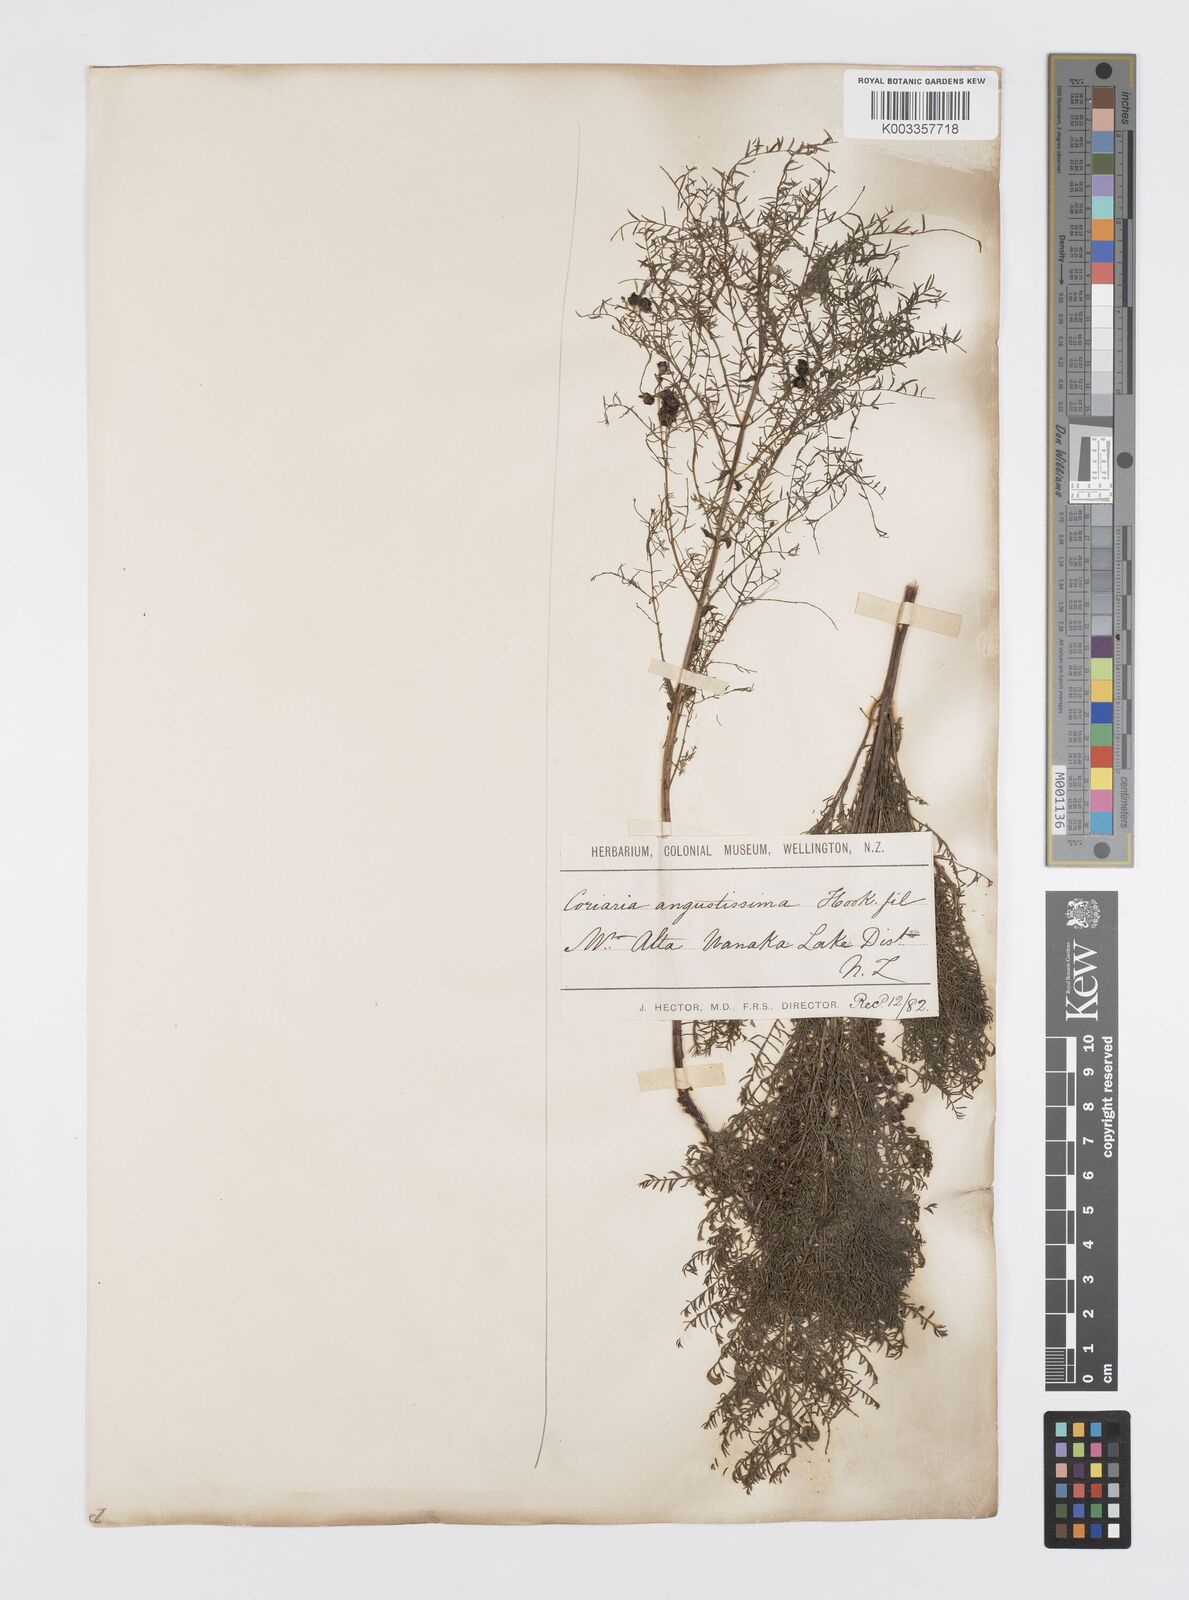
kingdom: Plantae
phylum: Tracheophyta
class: Magnoliopsida
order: Cucurbitales
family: Coriariaceae
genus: Coriaria
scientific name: Coriaria angustissima
